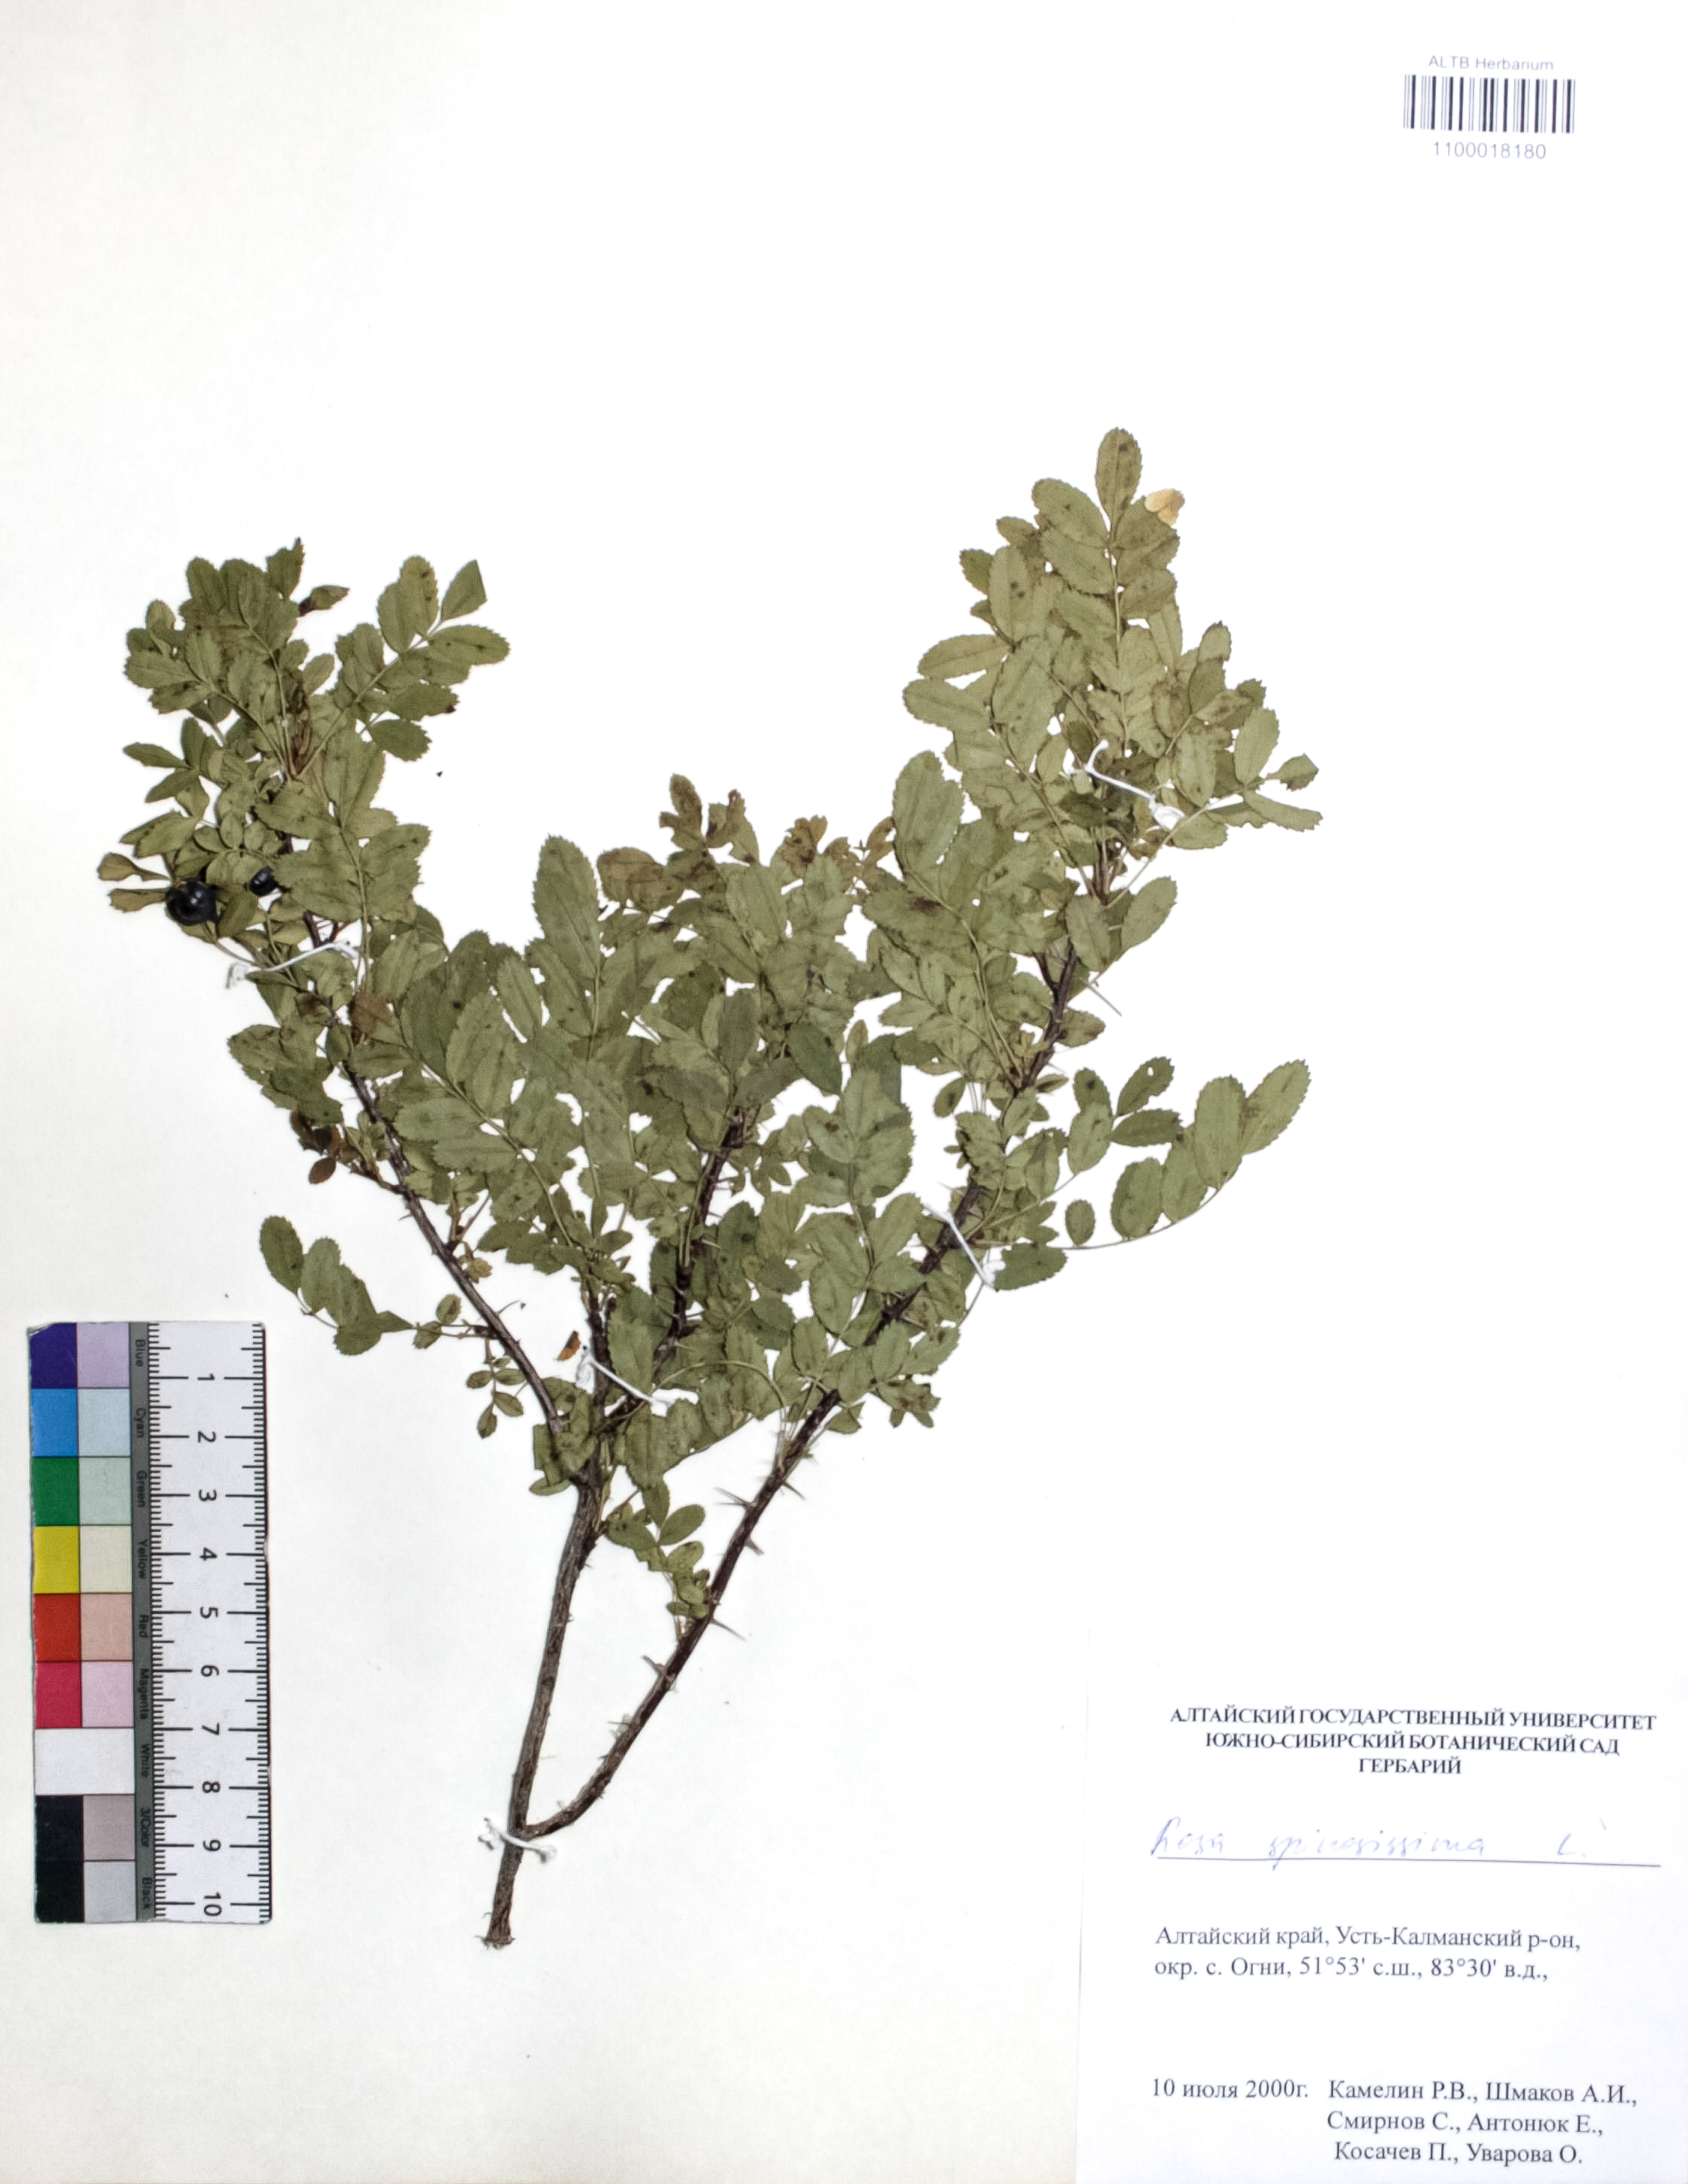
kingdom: Plantae
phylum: Tracheophyta
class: Magnoliopsida
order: Rosales
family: Rosaceae
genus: Rosa
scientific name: Rosa spinosissima
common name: Burnet rose
